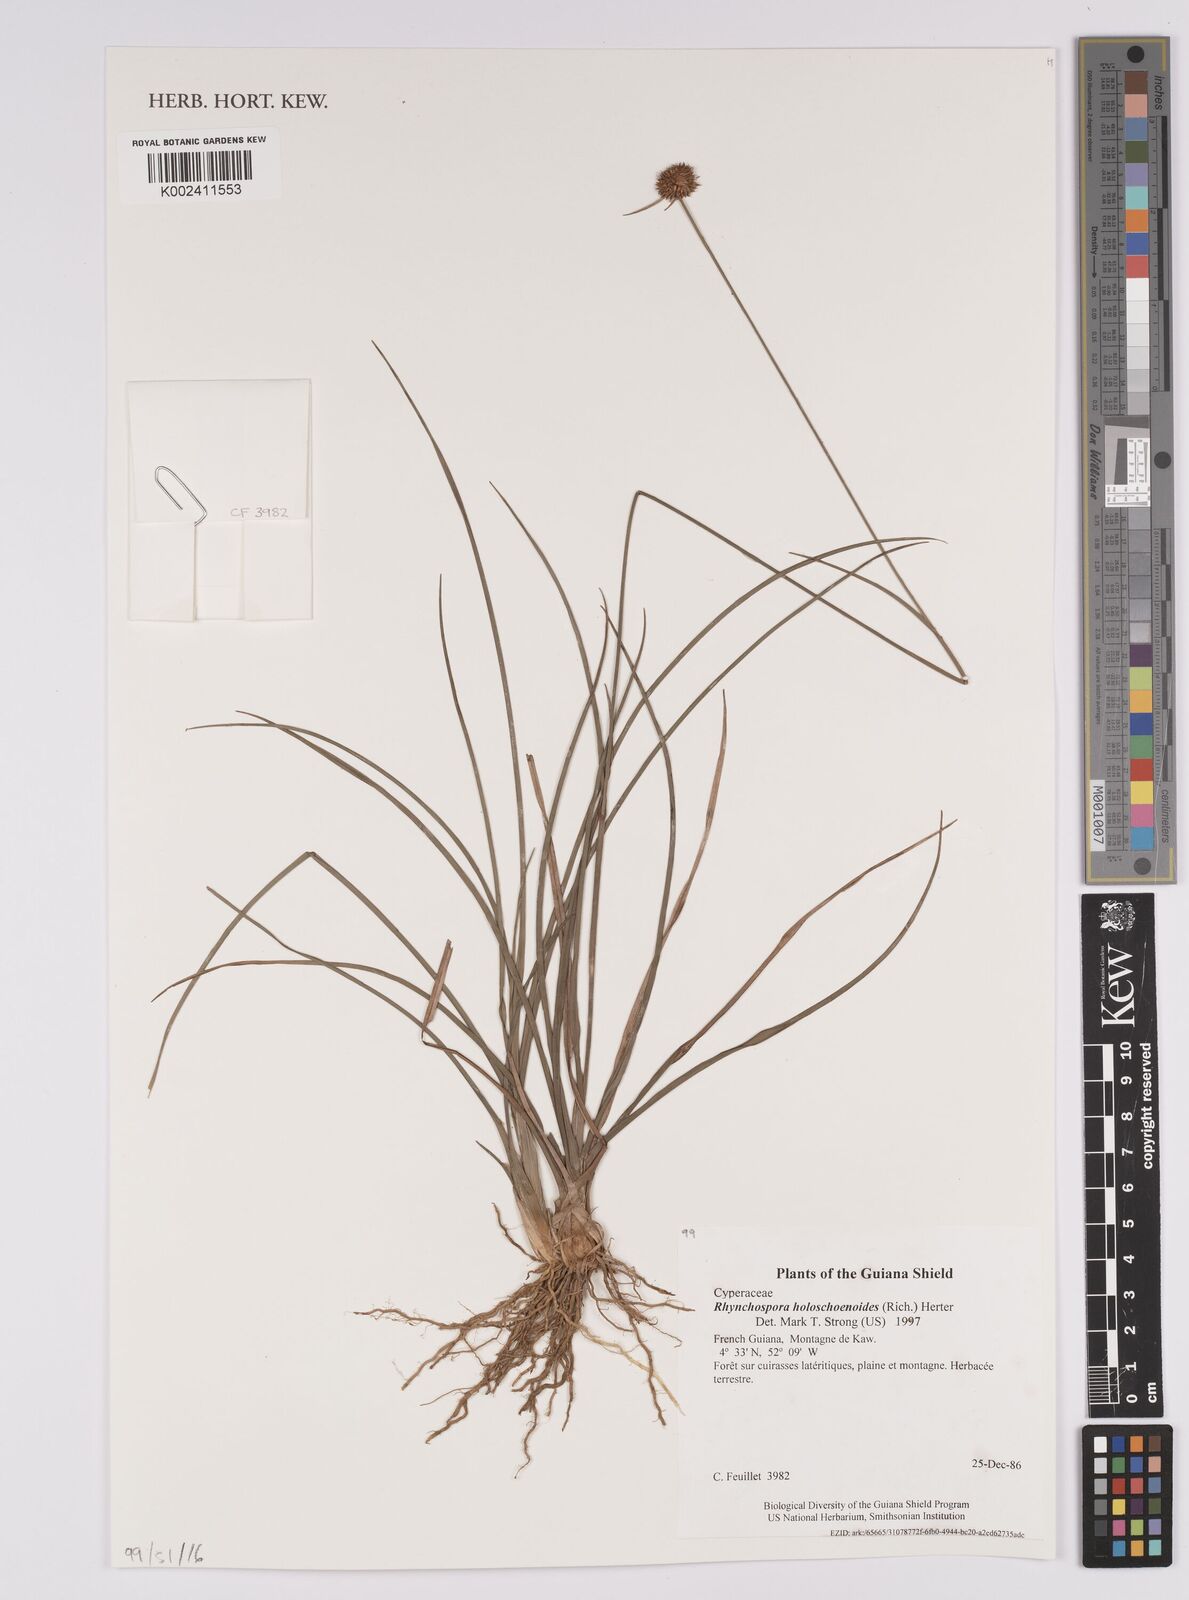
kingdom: Plantae
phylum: Tracheophyta
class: Liliopsida
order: Poales
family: Cyperaceae
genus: Rhynchospora
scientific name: Rhynchospora holoschoenoides
